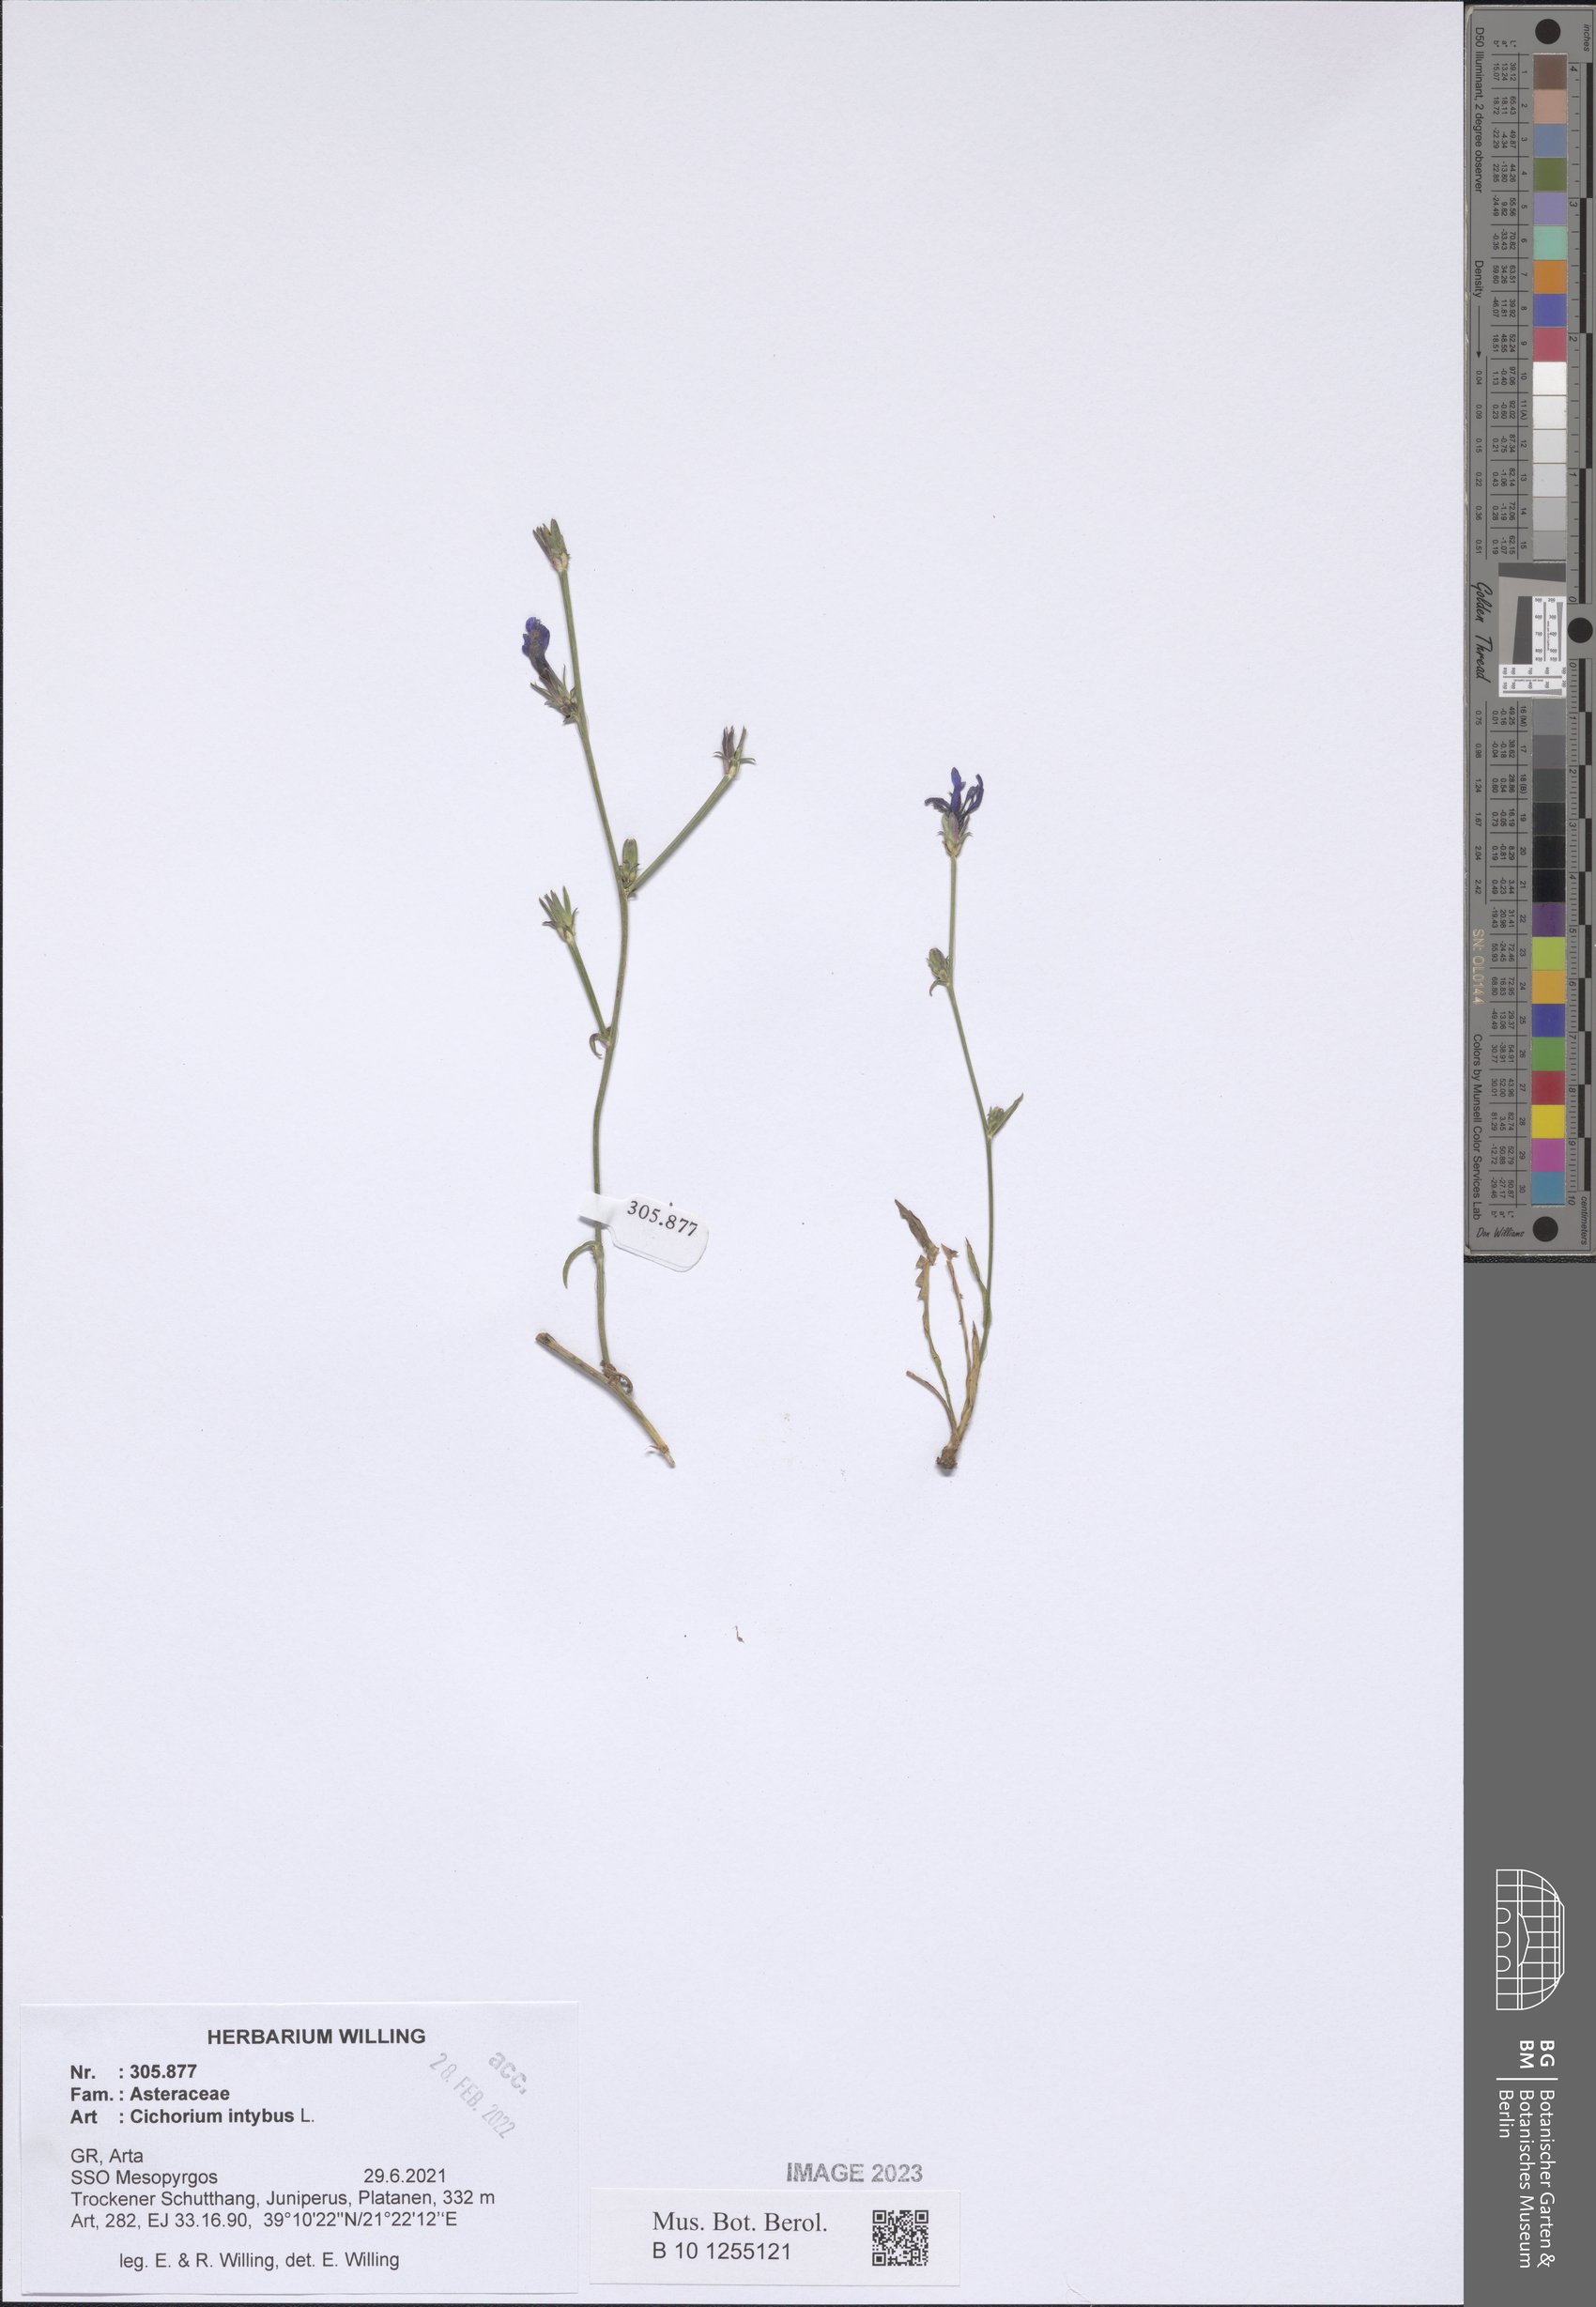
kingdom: Plantae
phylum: Tracheophyta
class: Magnoliopsida
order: Asterales
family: Asteraceae
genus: Cichorium
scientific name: Cichorium intybus
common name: Chicory
